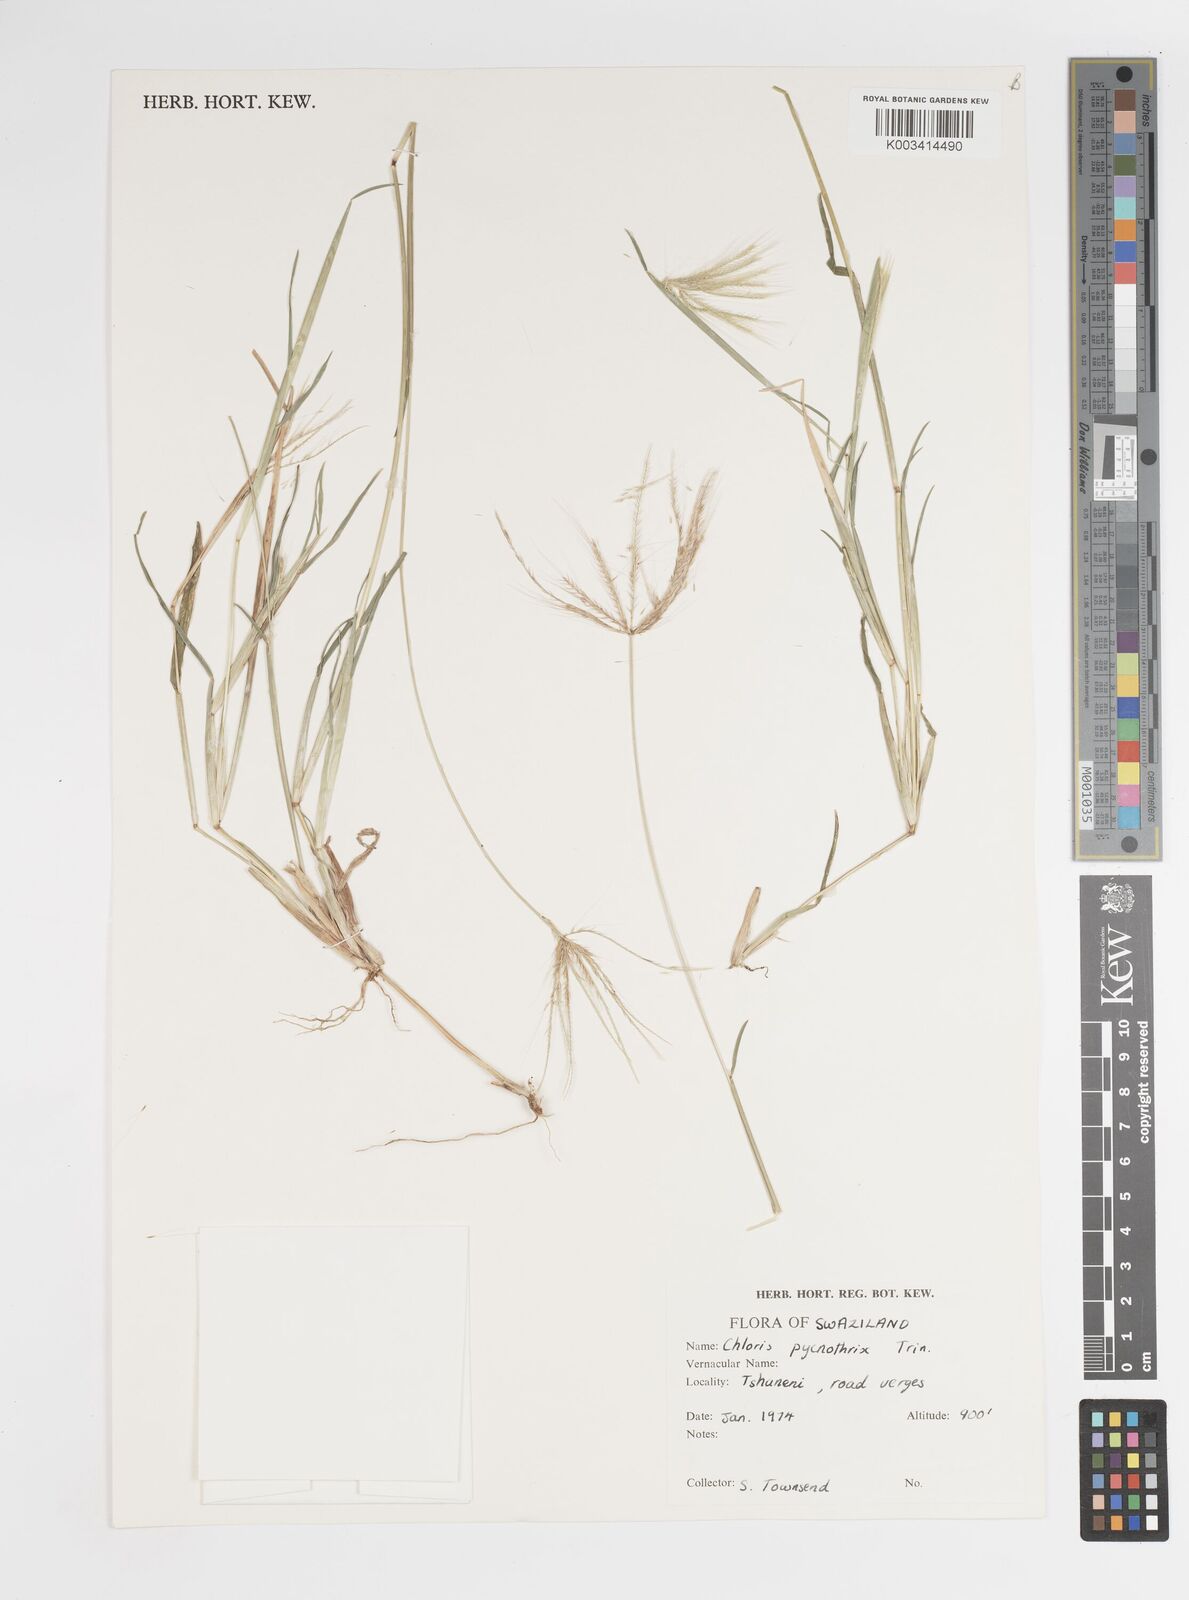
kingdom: Plantae
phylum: Tracheophyta
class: Liliopsida
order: Poales
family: Poaceae
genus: Chloris
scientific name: Chloris pycnothrix
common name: Spiderweb chloris
